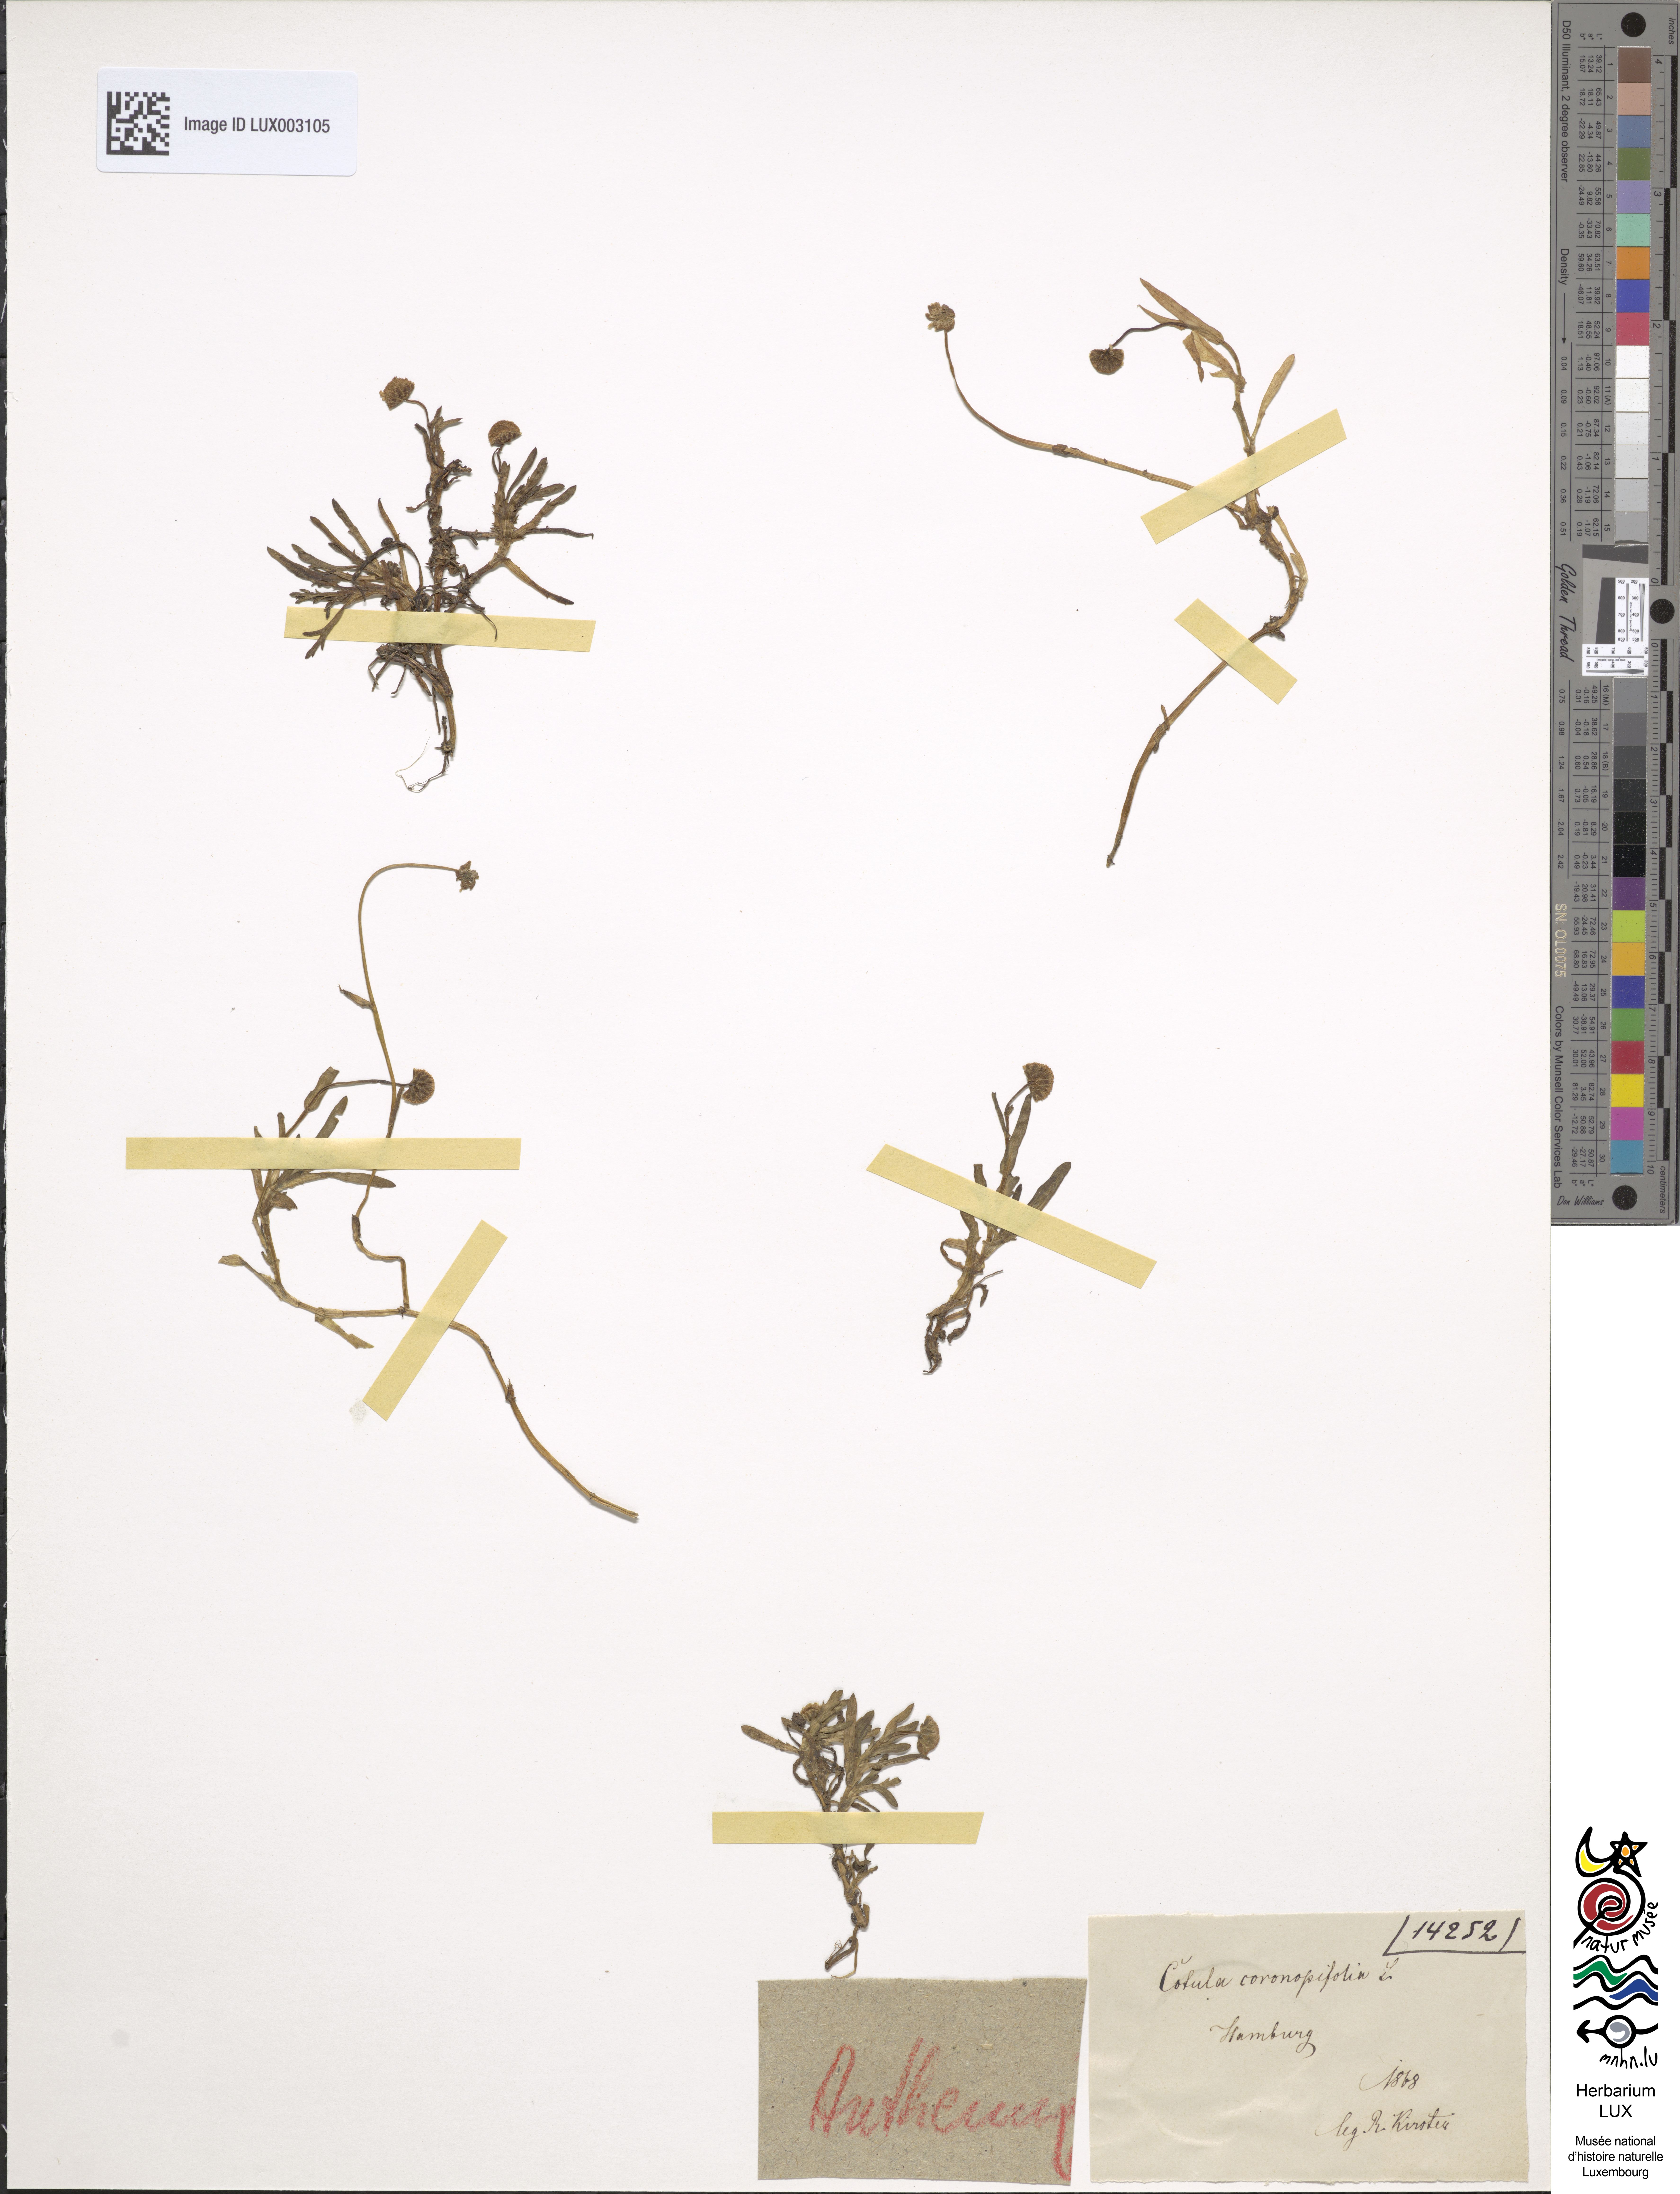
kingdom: Plantae
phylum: Tracheophyta
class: Magnoliopsida
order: Asterales
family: Asteraceae
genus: Cotula
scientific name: Cotula coronopifolia
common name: Buttonweed
